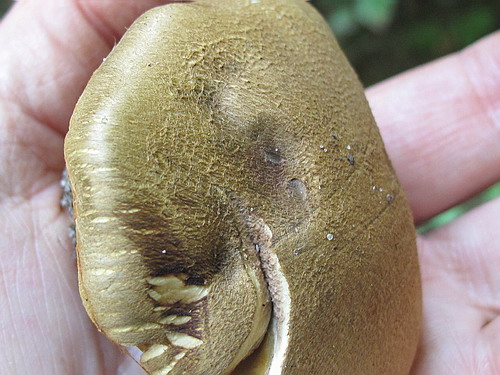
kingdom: Fungi
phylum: Basidiomycota
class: Agaricomycetes
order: Agaricales
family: Cortinariaceae
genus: Cortinarius
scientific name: Cortinarius cotoneus
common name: ulden slørhat
